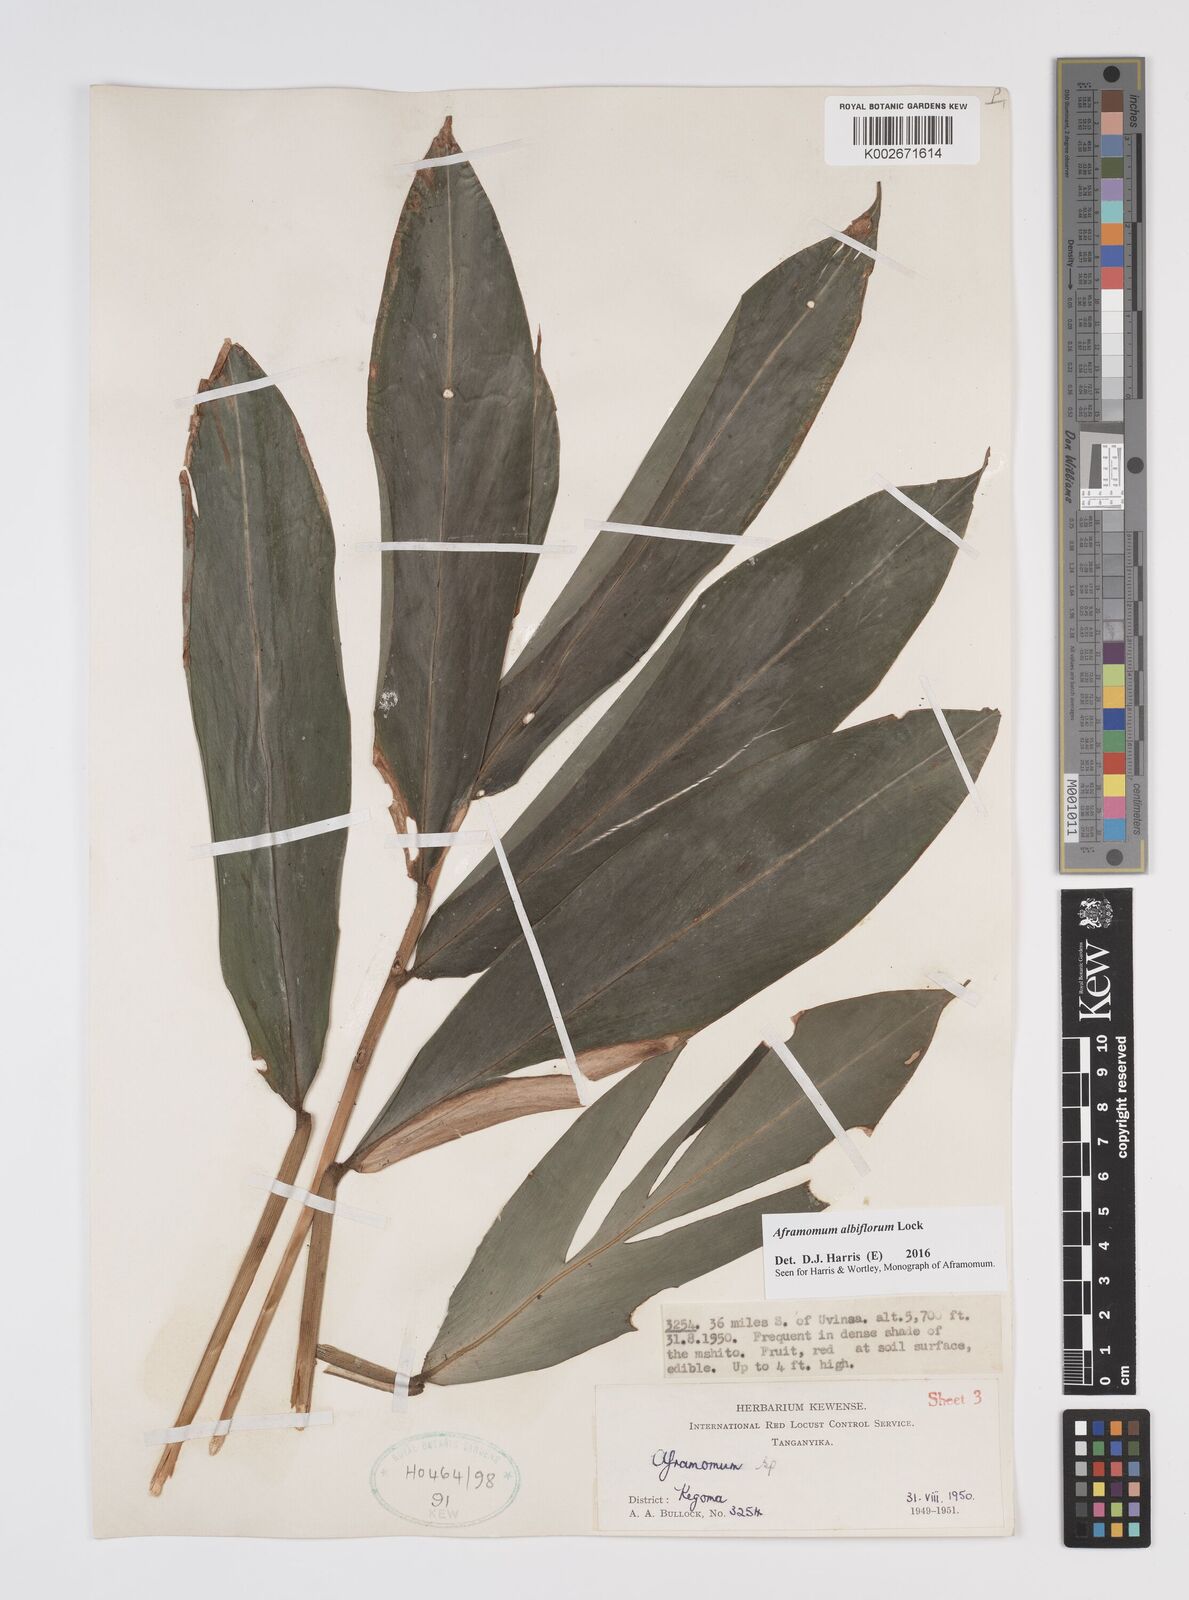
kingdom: Plantae
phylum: Tracheophyta
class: Liliopsida
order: Zingiberales
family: Zingiberaceae
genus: Aframomum
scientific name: Aframomum albiflorum
